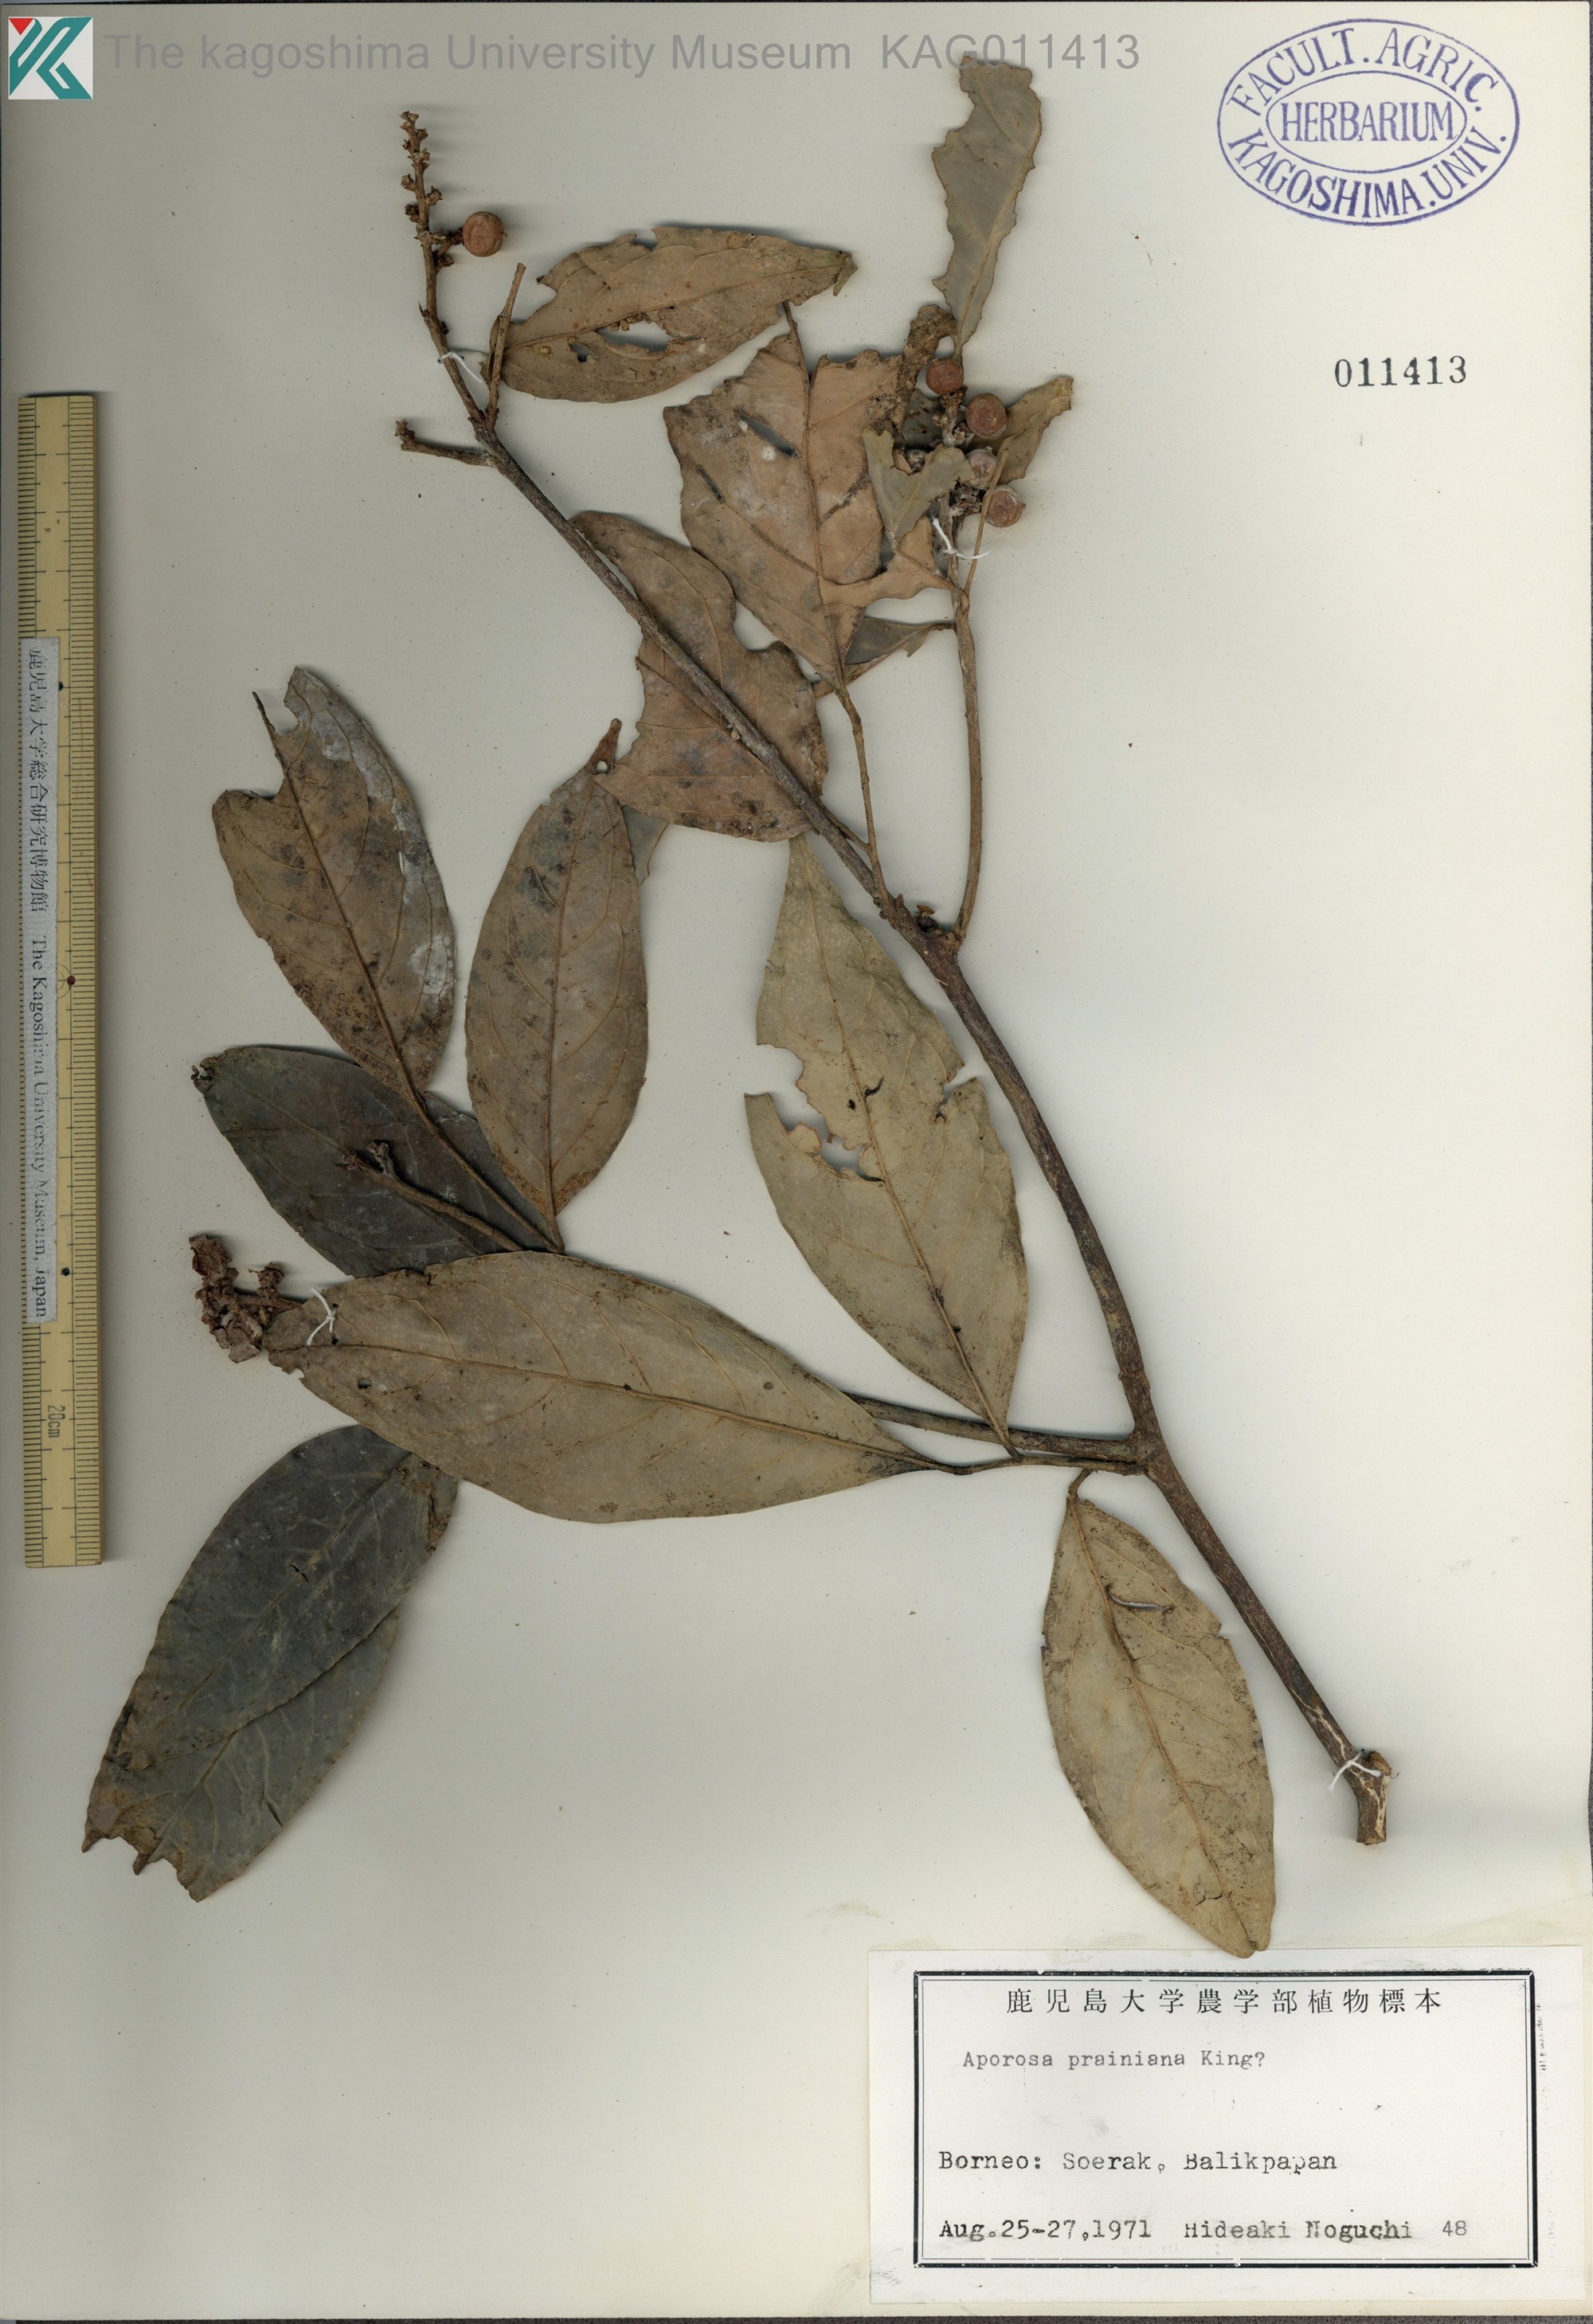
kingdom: Plantae
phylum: Tracheophyta
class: Magnoliopsida
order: Malpighiales
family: Phyllanthaceae
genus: Aporosa
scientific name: Aporosa prainiana
